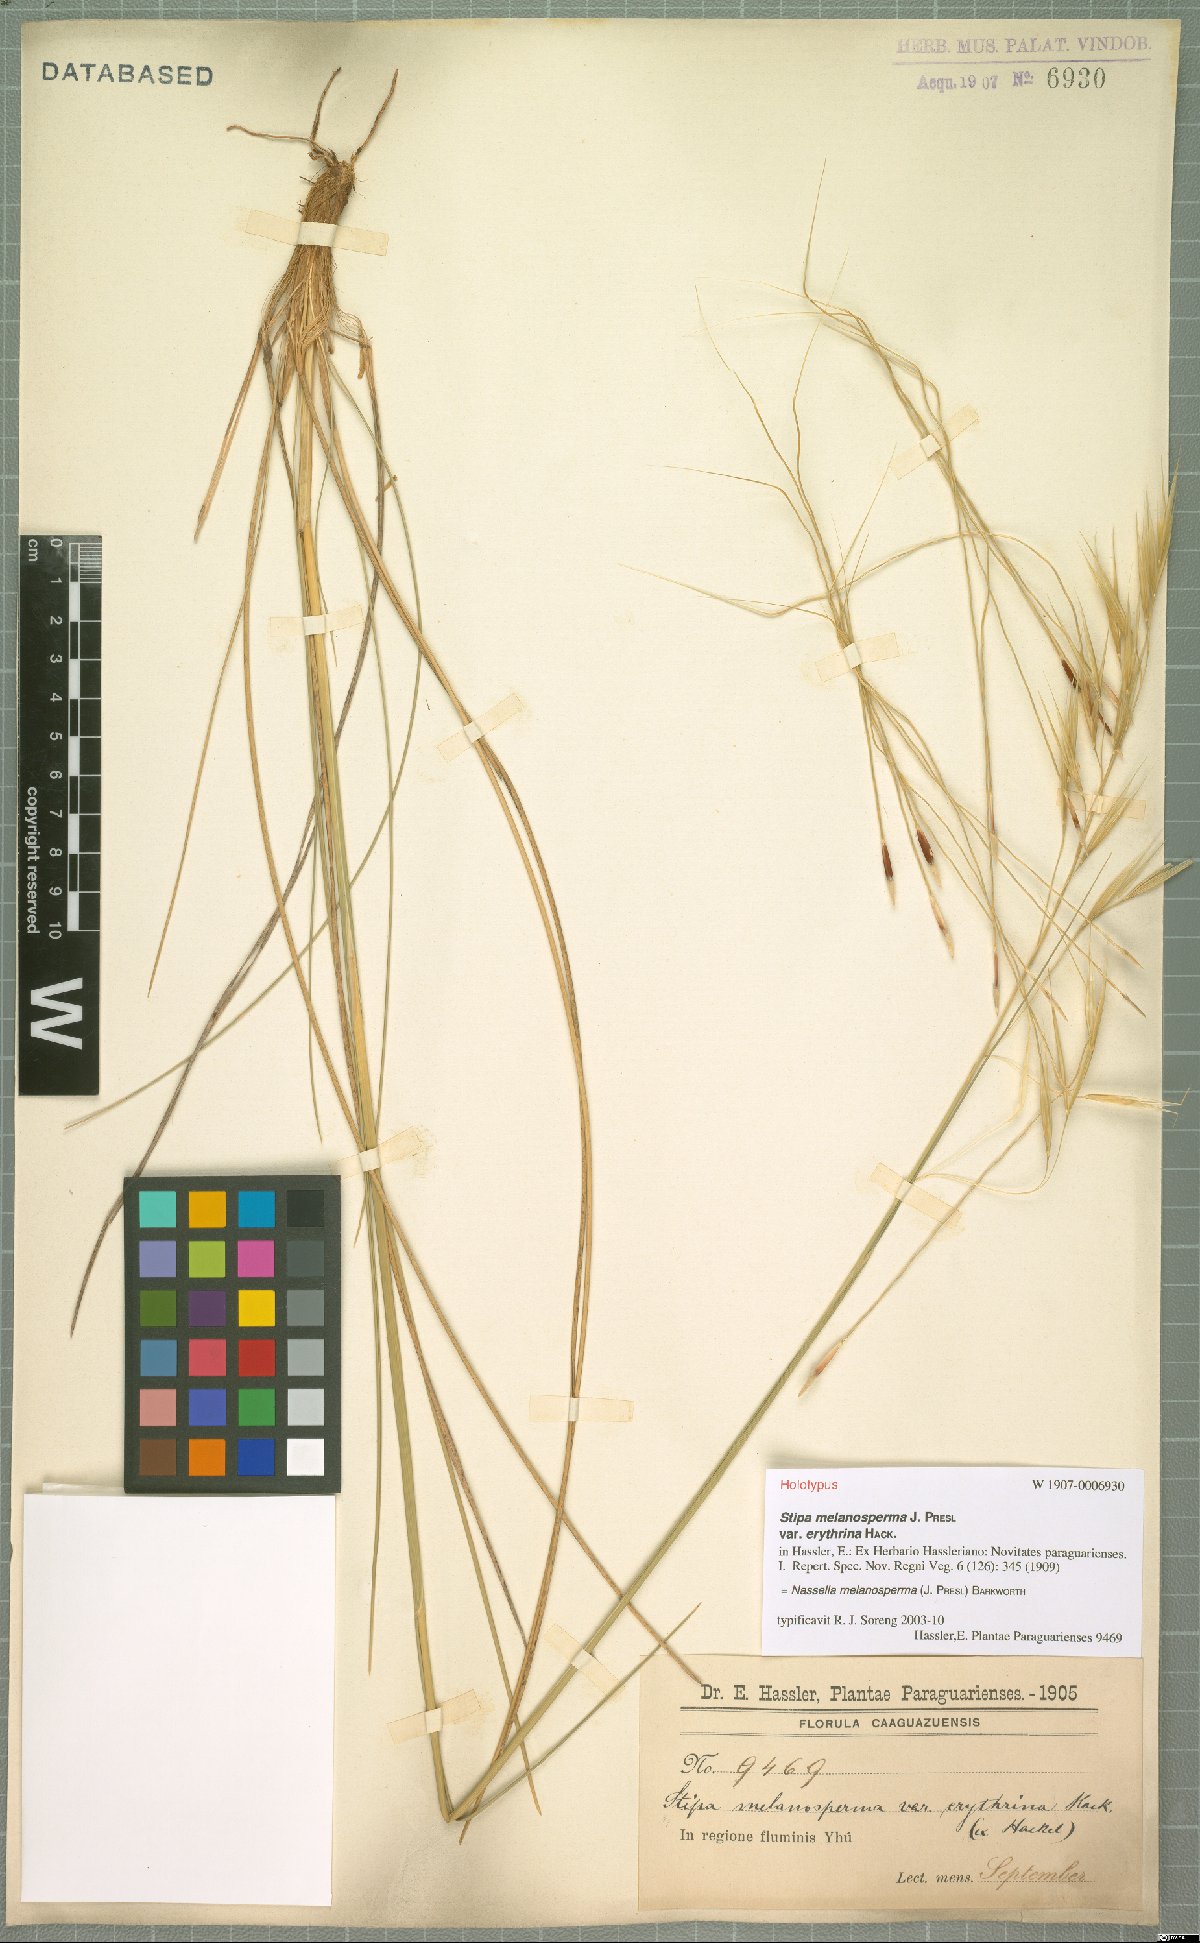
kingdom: Plantae
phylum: Tracheophyta
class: Liliopsida
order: Poales
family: Poaceae
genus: Nassella
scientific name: Nassella melanosperma
